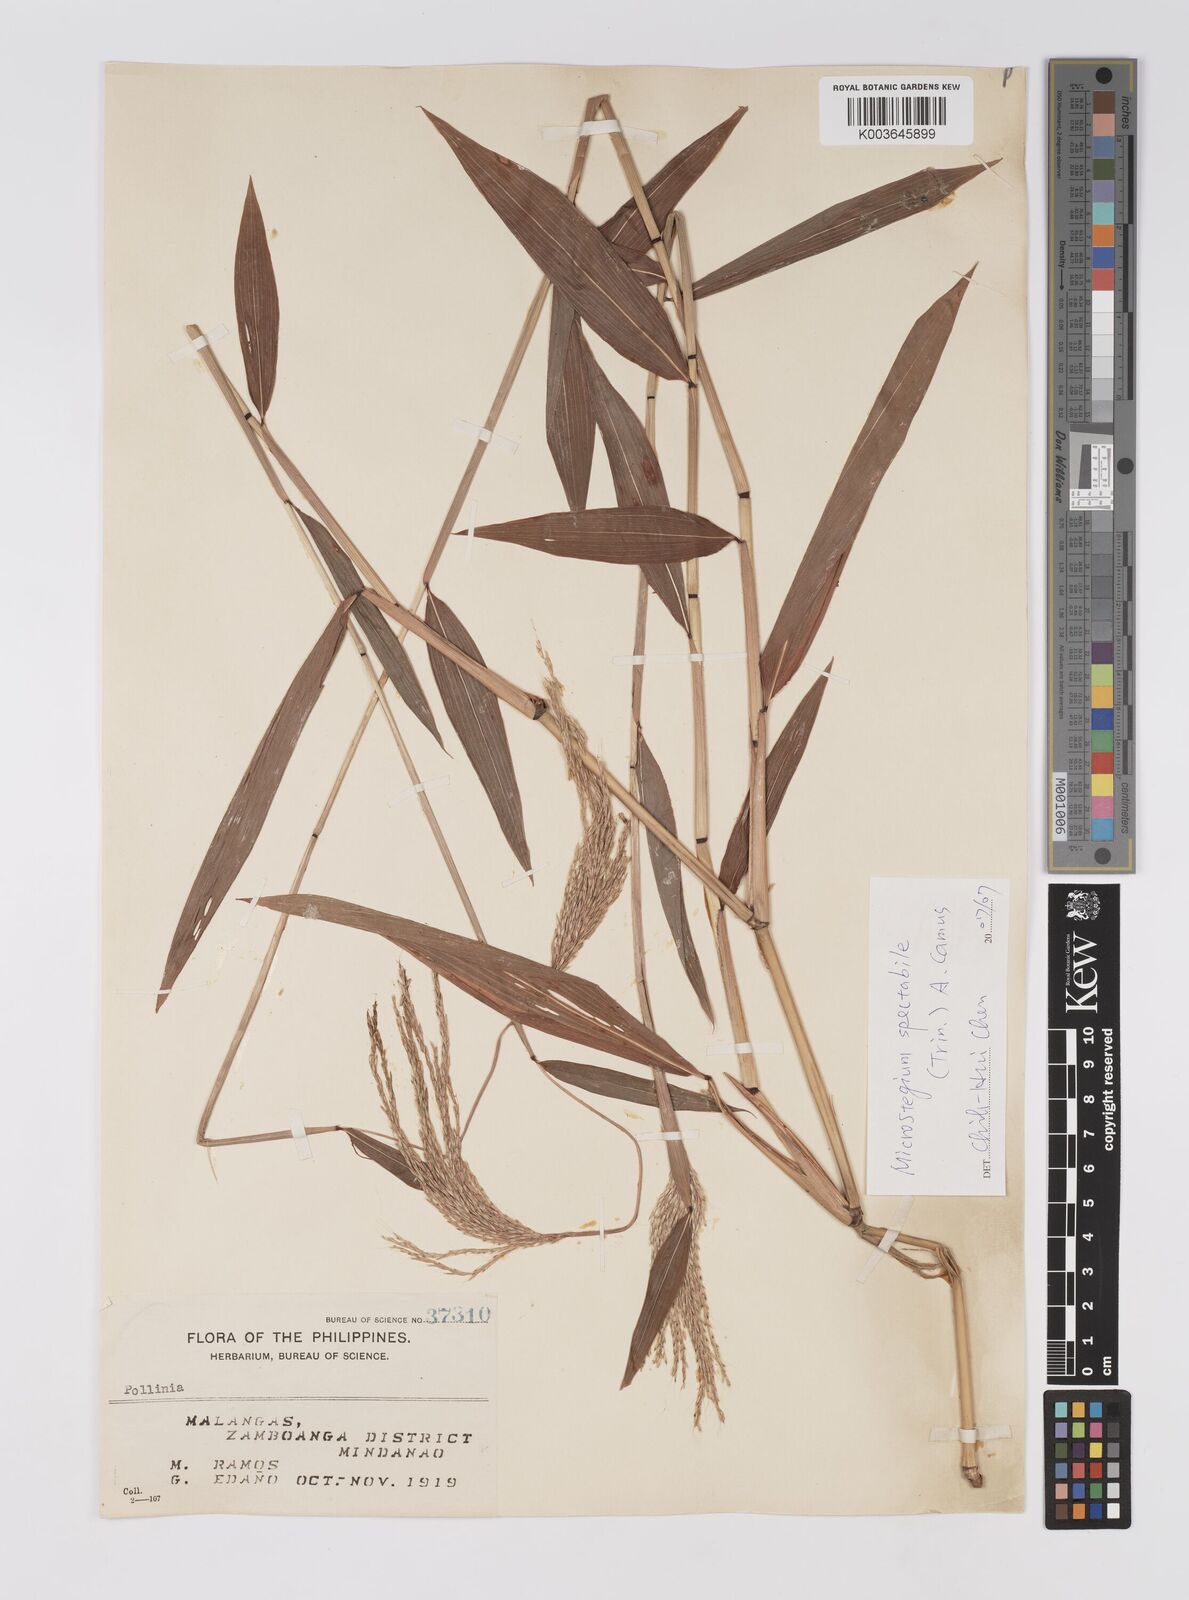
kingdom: Plantae
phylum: Tracheophyta
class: Liliopsida
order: Poales
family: Poaceae
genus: Microstegium
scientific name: Microstegium spectabile
